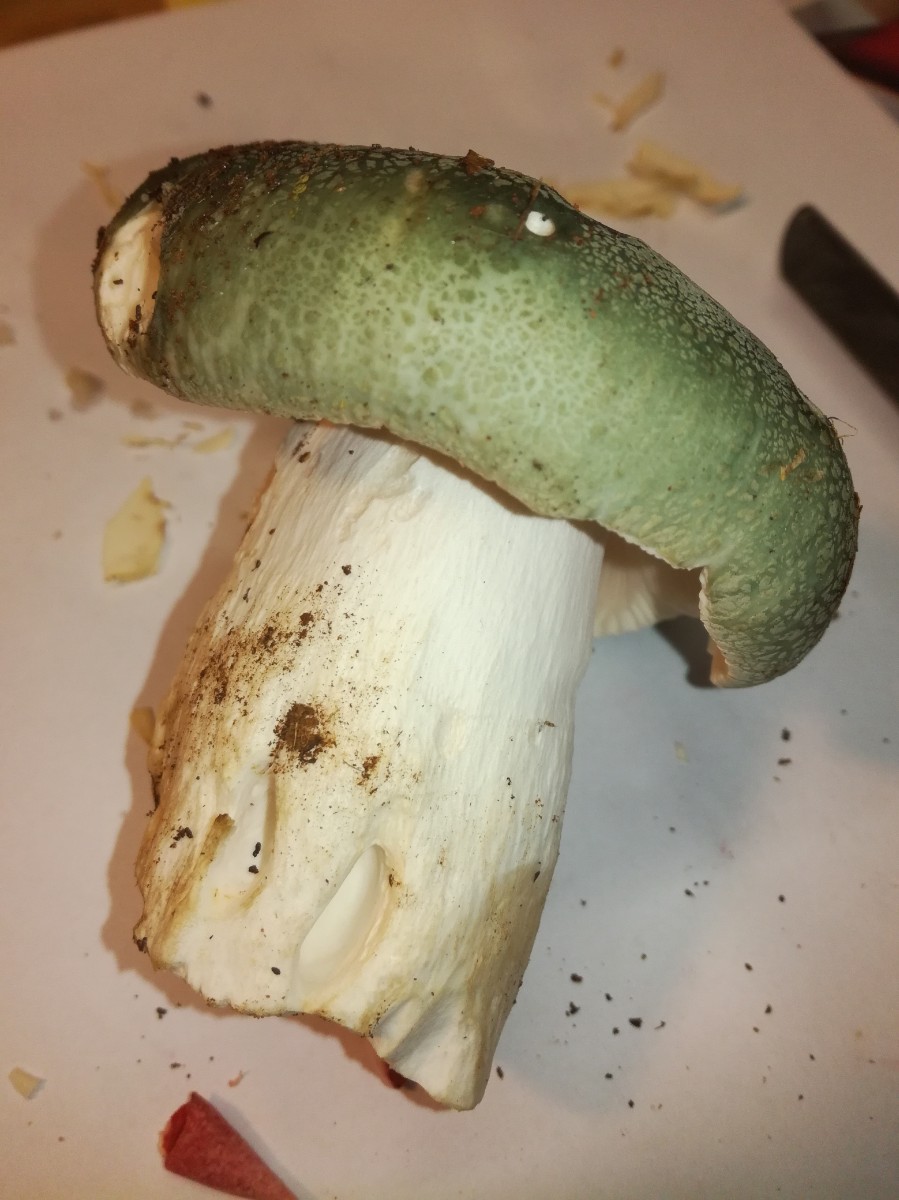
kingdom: Fungi
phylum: Basidiomycota
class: Agaricomycetes
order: Russulales
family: Russulaceae
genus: Russula
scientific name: Russula virescens
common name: spanskgrøn skørhat
